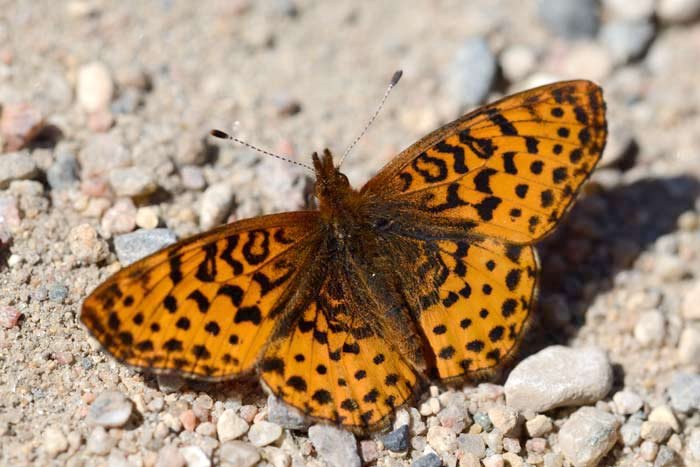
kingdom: Animalia
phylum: Arthropoda
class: Insecta
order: Lepidoptera
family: Nymphalidae
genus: Clossiana
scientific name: Clossiana toddi
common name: Meadow Fritillary
